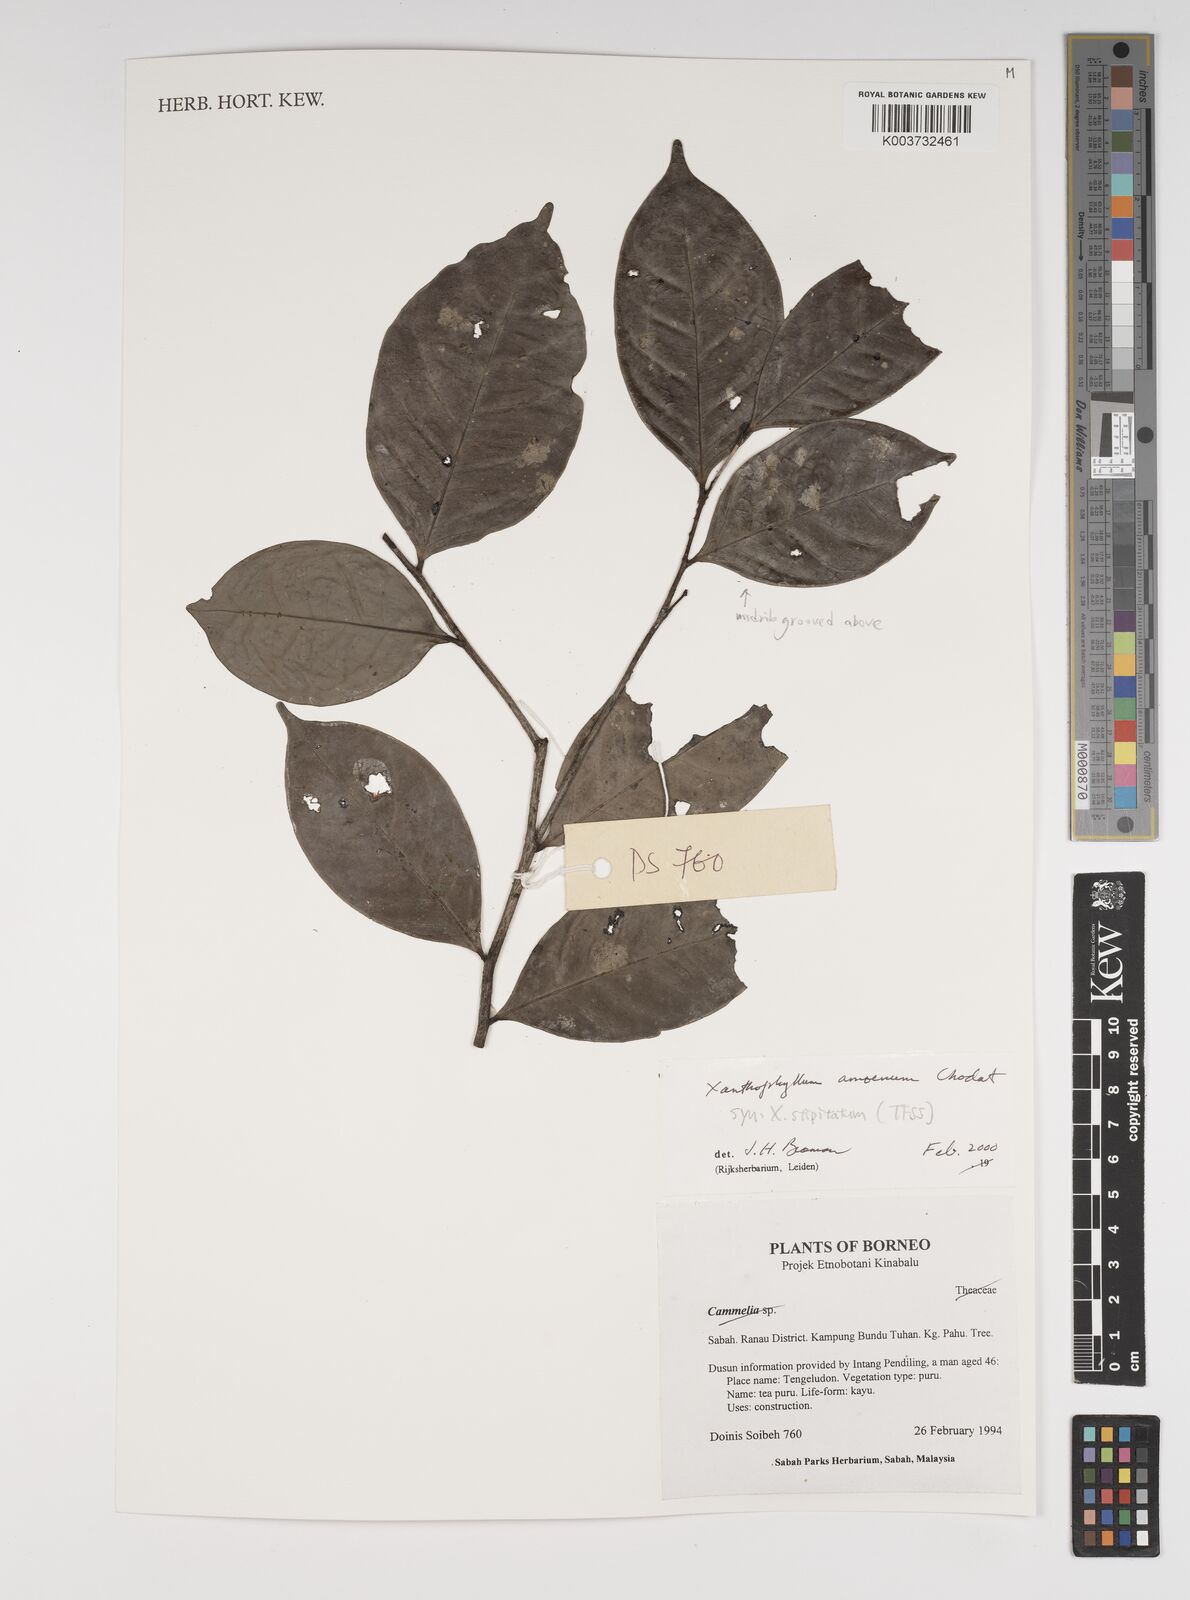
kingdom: Plantae
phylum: Tracheophyta
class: Magnoliopsida
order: Fabales
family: Polygalaceae
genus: Xanthophyllum
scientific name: Xanthophyllum stipitatum
